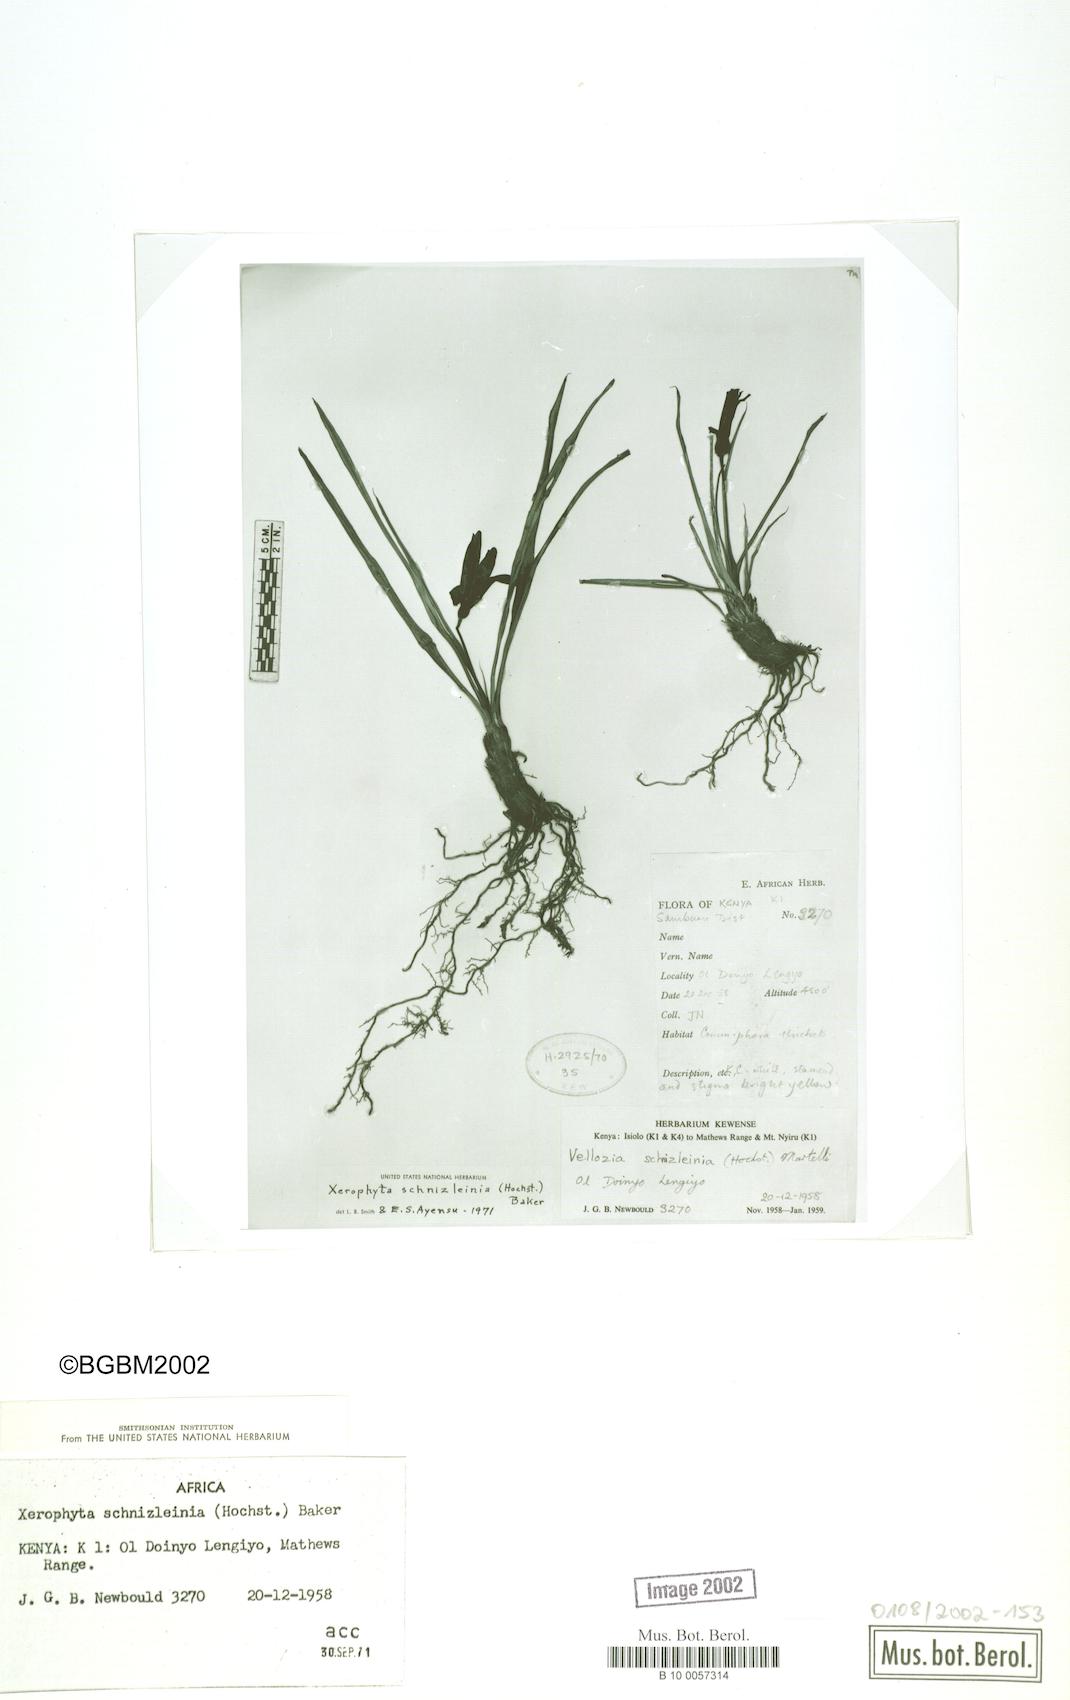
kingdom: Plantae
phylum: Tracheophyta
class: Liliopsida
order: Pandanales
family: Velloziaceae
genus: Xerophyta
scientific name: Xerophyta schnizleinia
